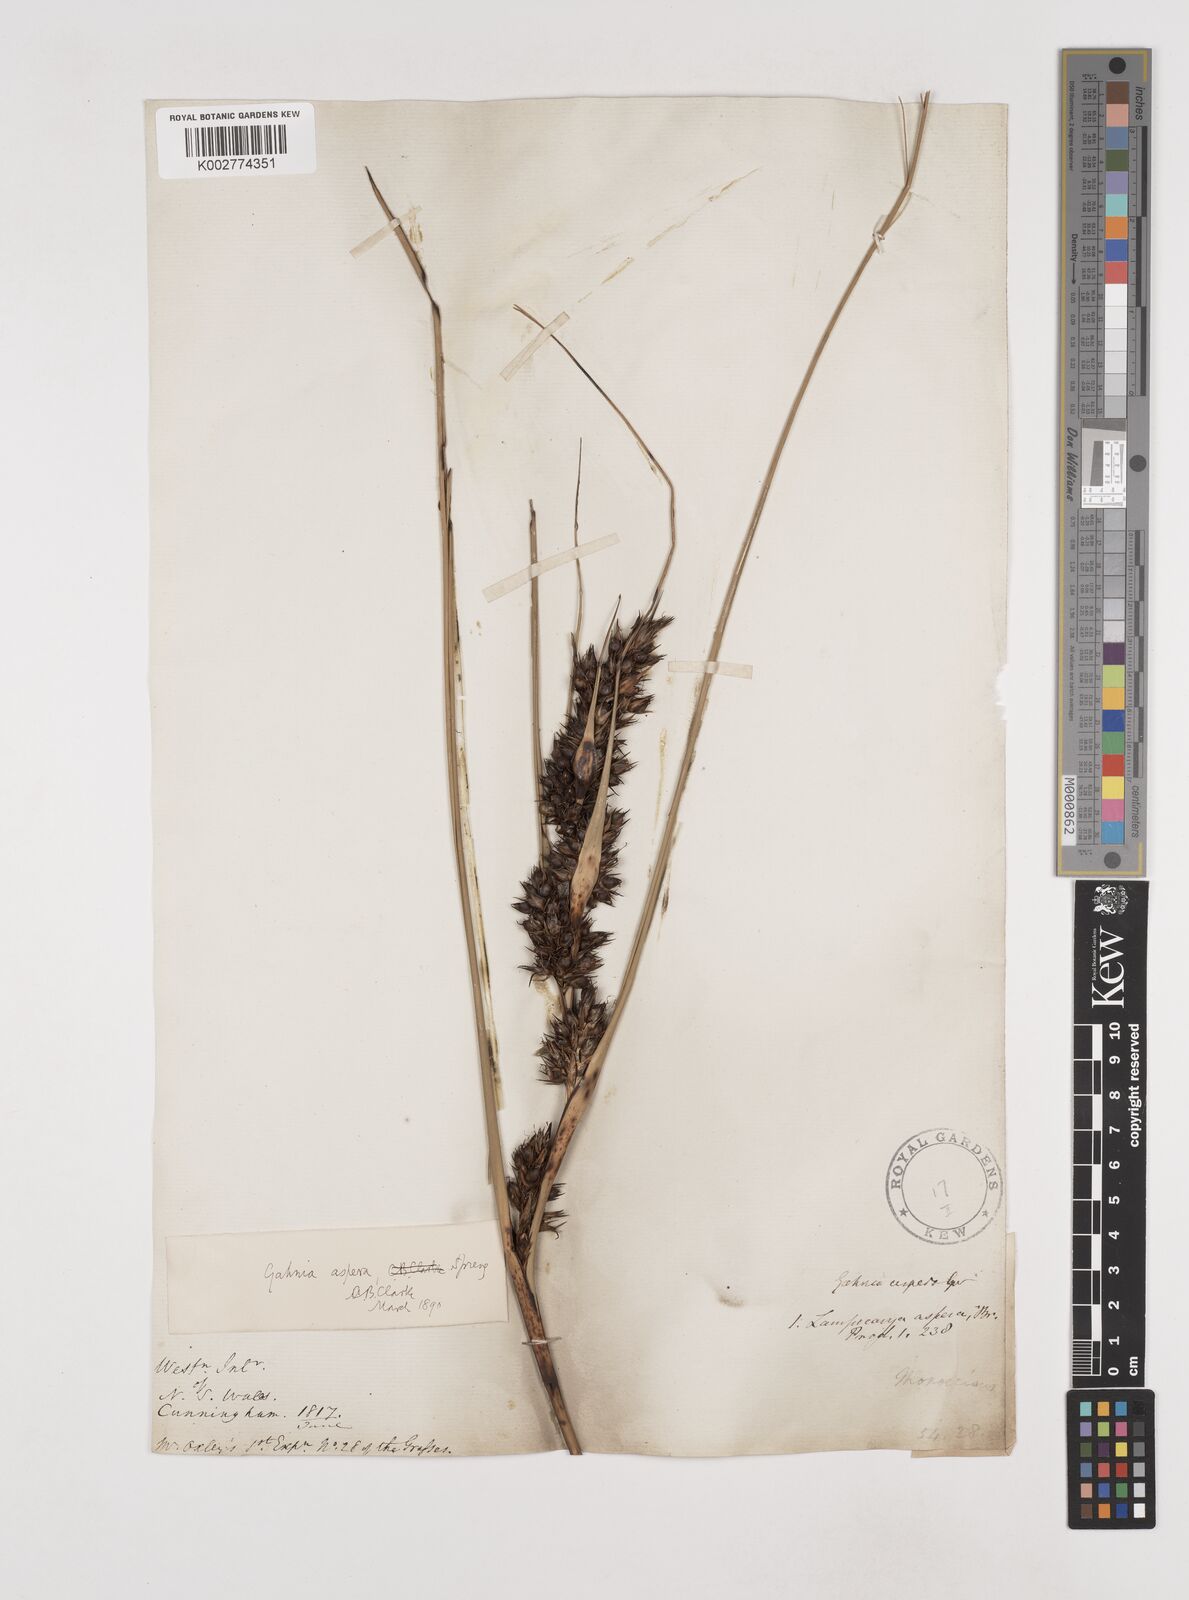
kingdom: Plantae
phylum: Tracheophyta
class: Liliopsida
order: Poales
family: Cyperaceae
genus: Gahnia
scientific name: Gahnia aspera
